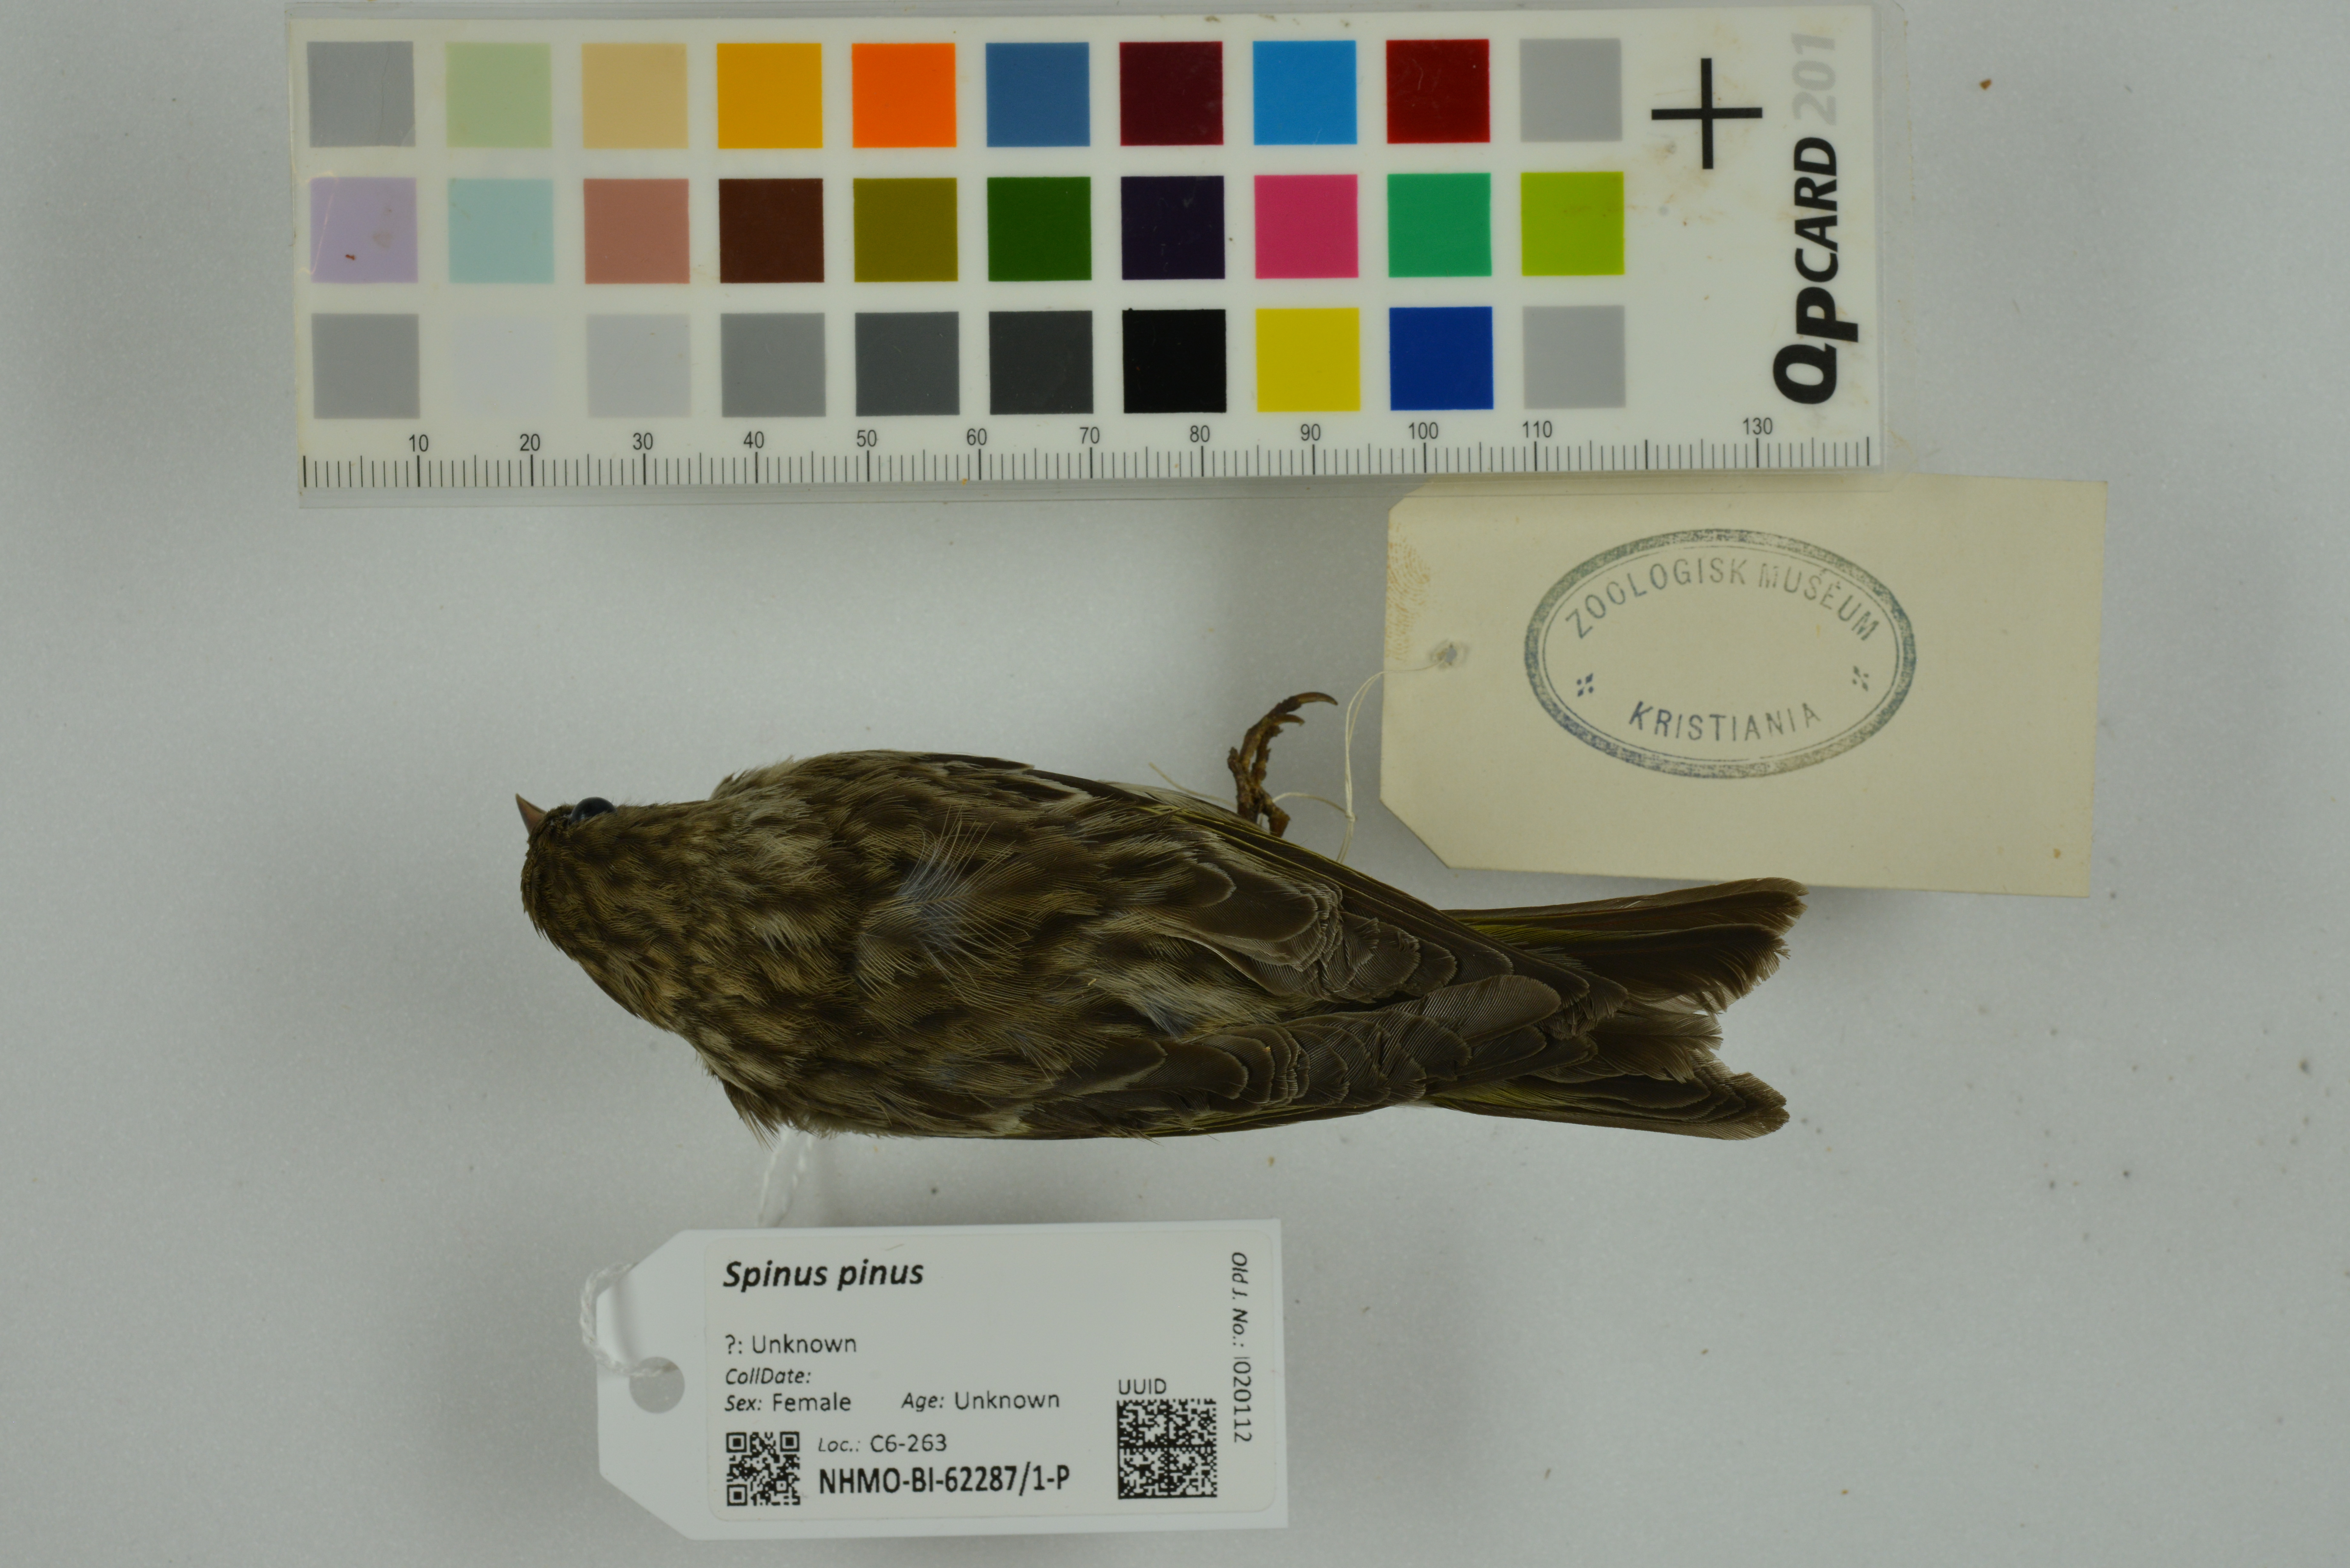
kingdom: Animalia
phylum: Chordata
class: Aves
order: Passeriformes
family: Fringillidae
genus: Spinus
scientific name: Spinus pinus
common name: Pine siskin
